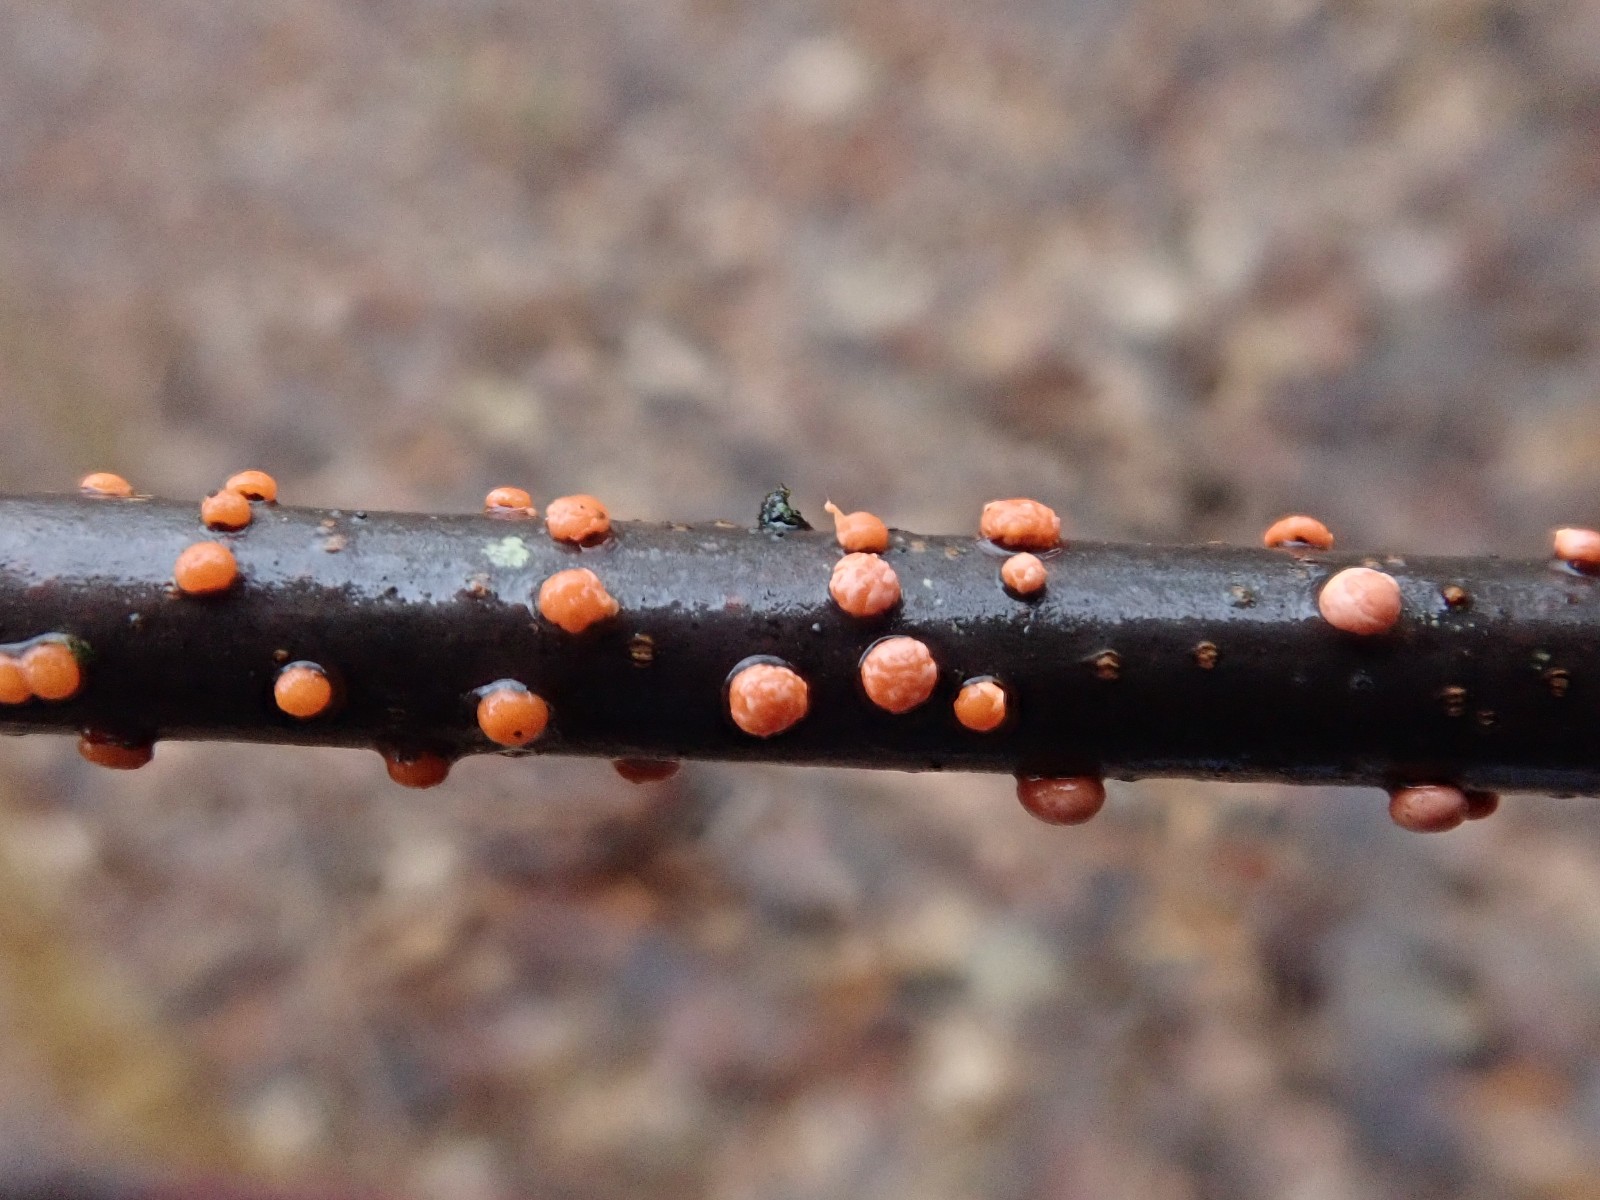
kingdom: Fungi
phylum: Ascomycota
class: Sordariomycetes
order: Hypocreales
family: Nectriaceae
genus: Nectria
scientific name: Nectria cinnabarina
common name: almindelig cinnobersvamp
